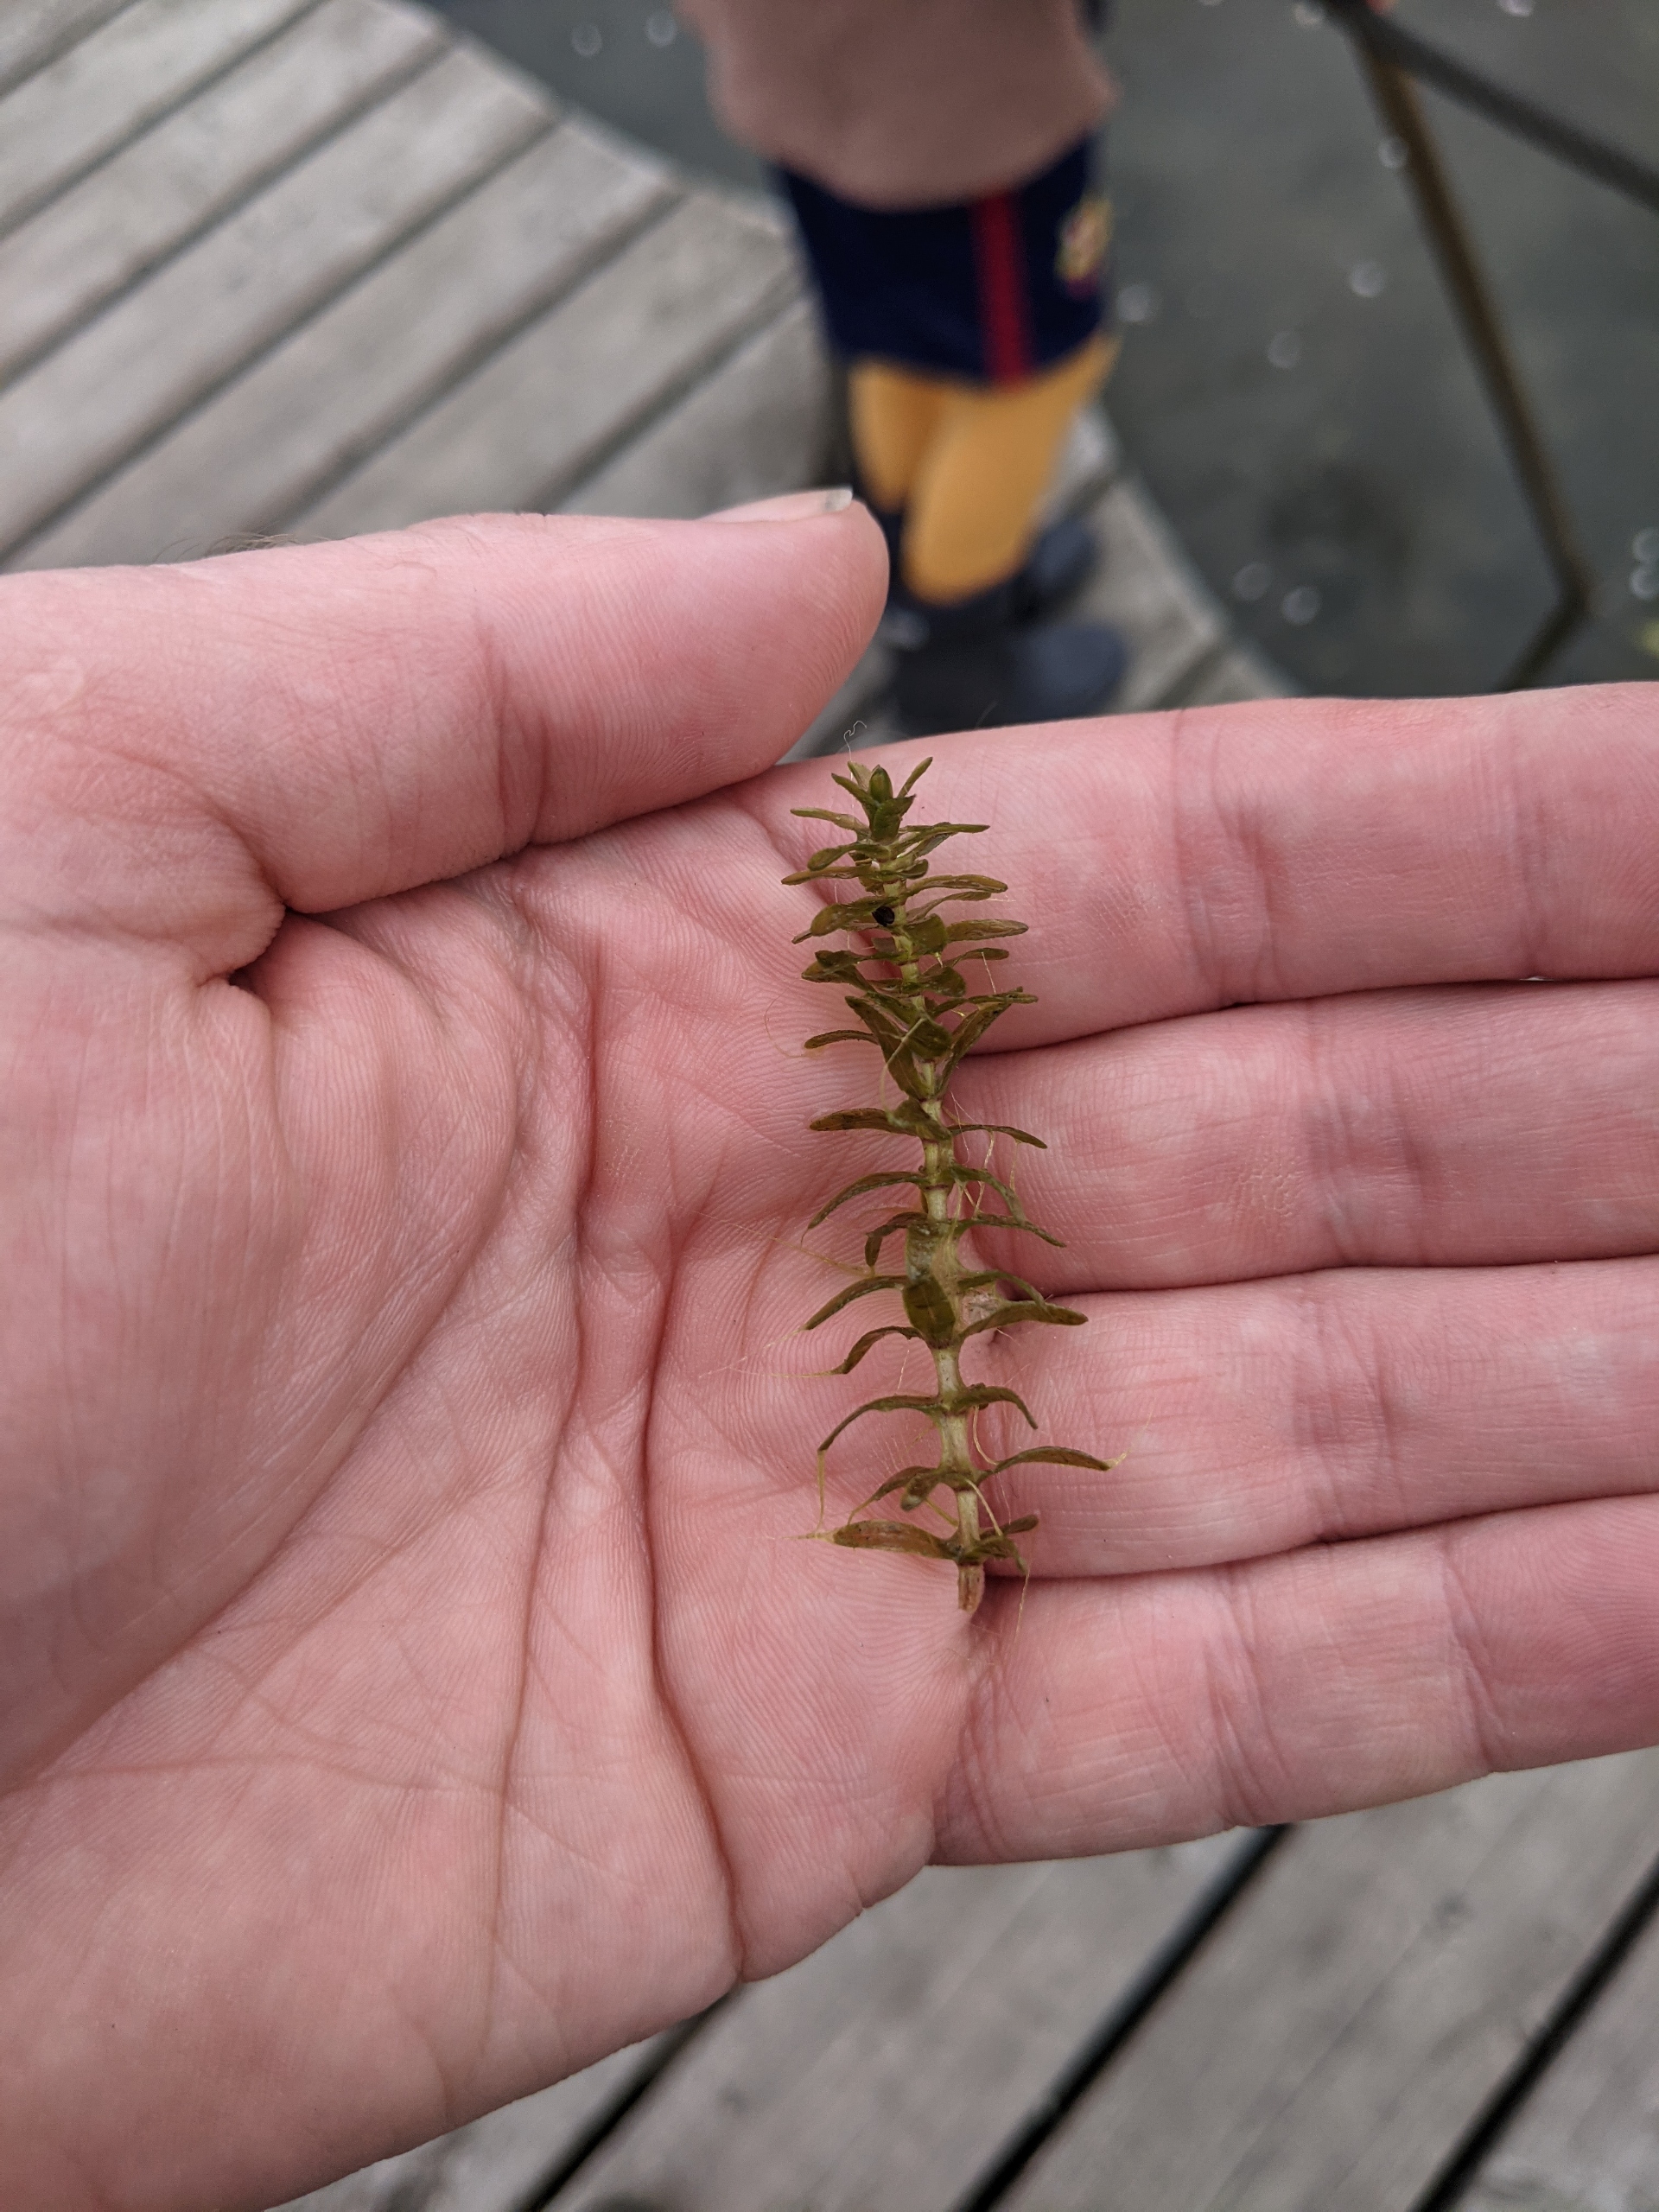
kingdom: Plantae
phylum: Tracheophyta
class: Liliopsida
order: Alismatales
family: Hydrocharitaceae
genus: Elodea
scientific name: Elodea canadensis
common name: Vandpest
